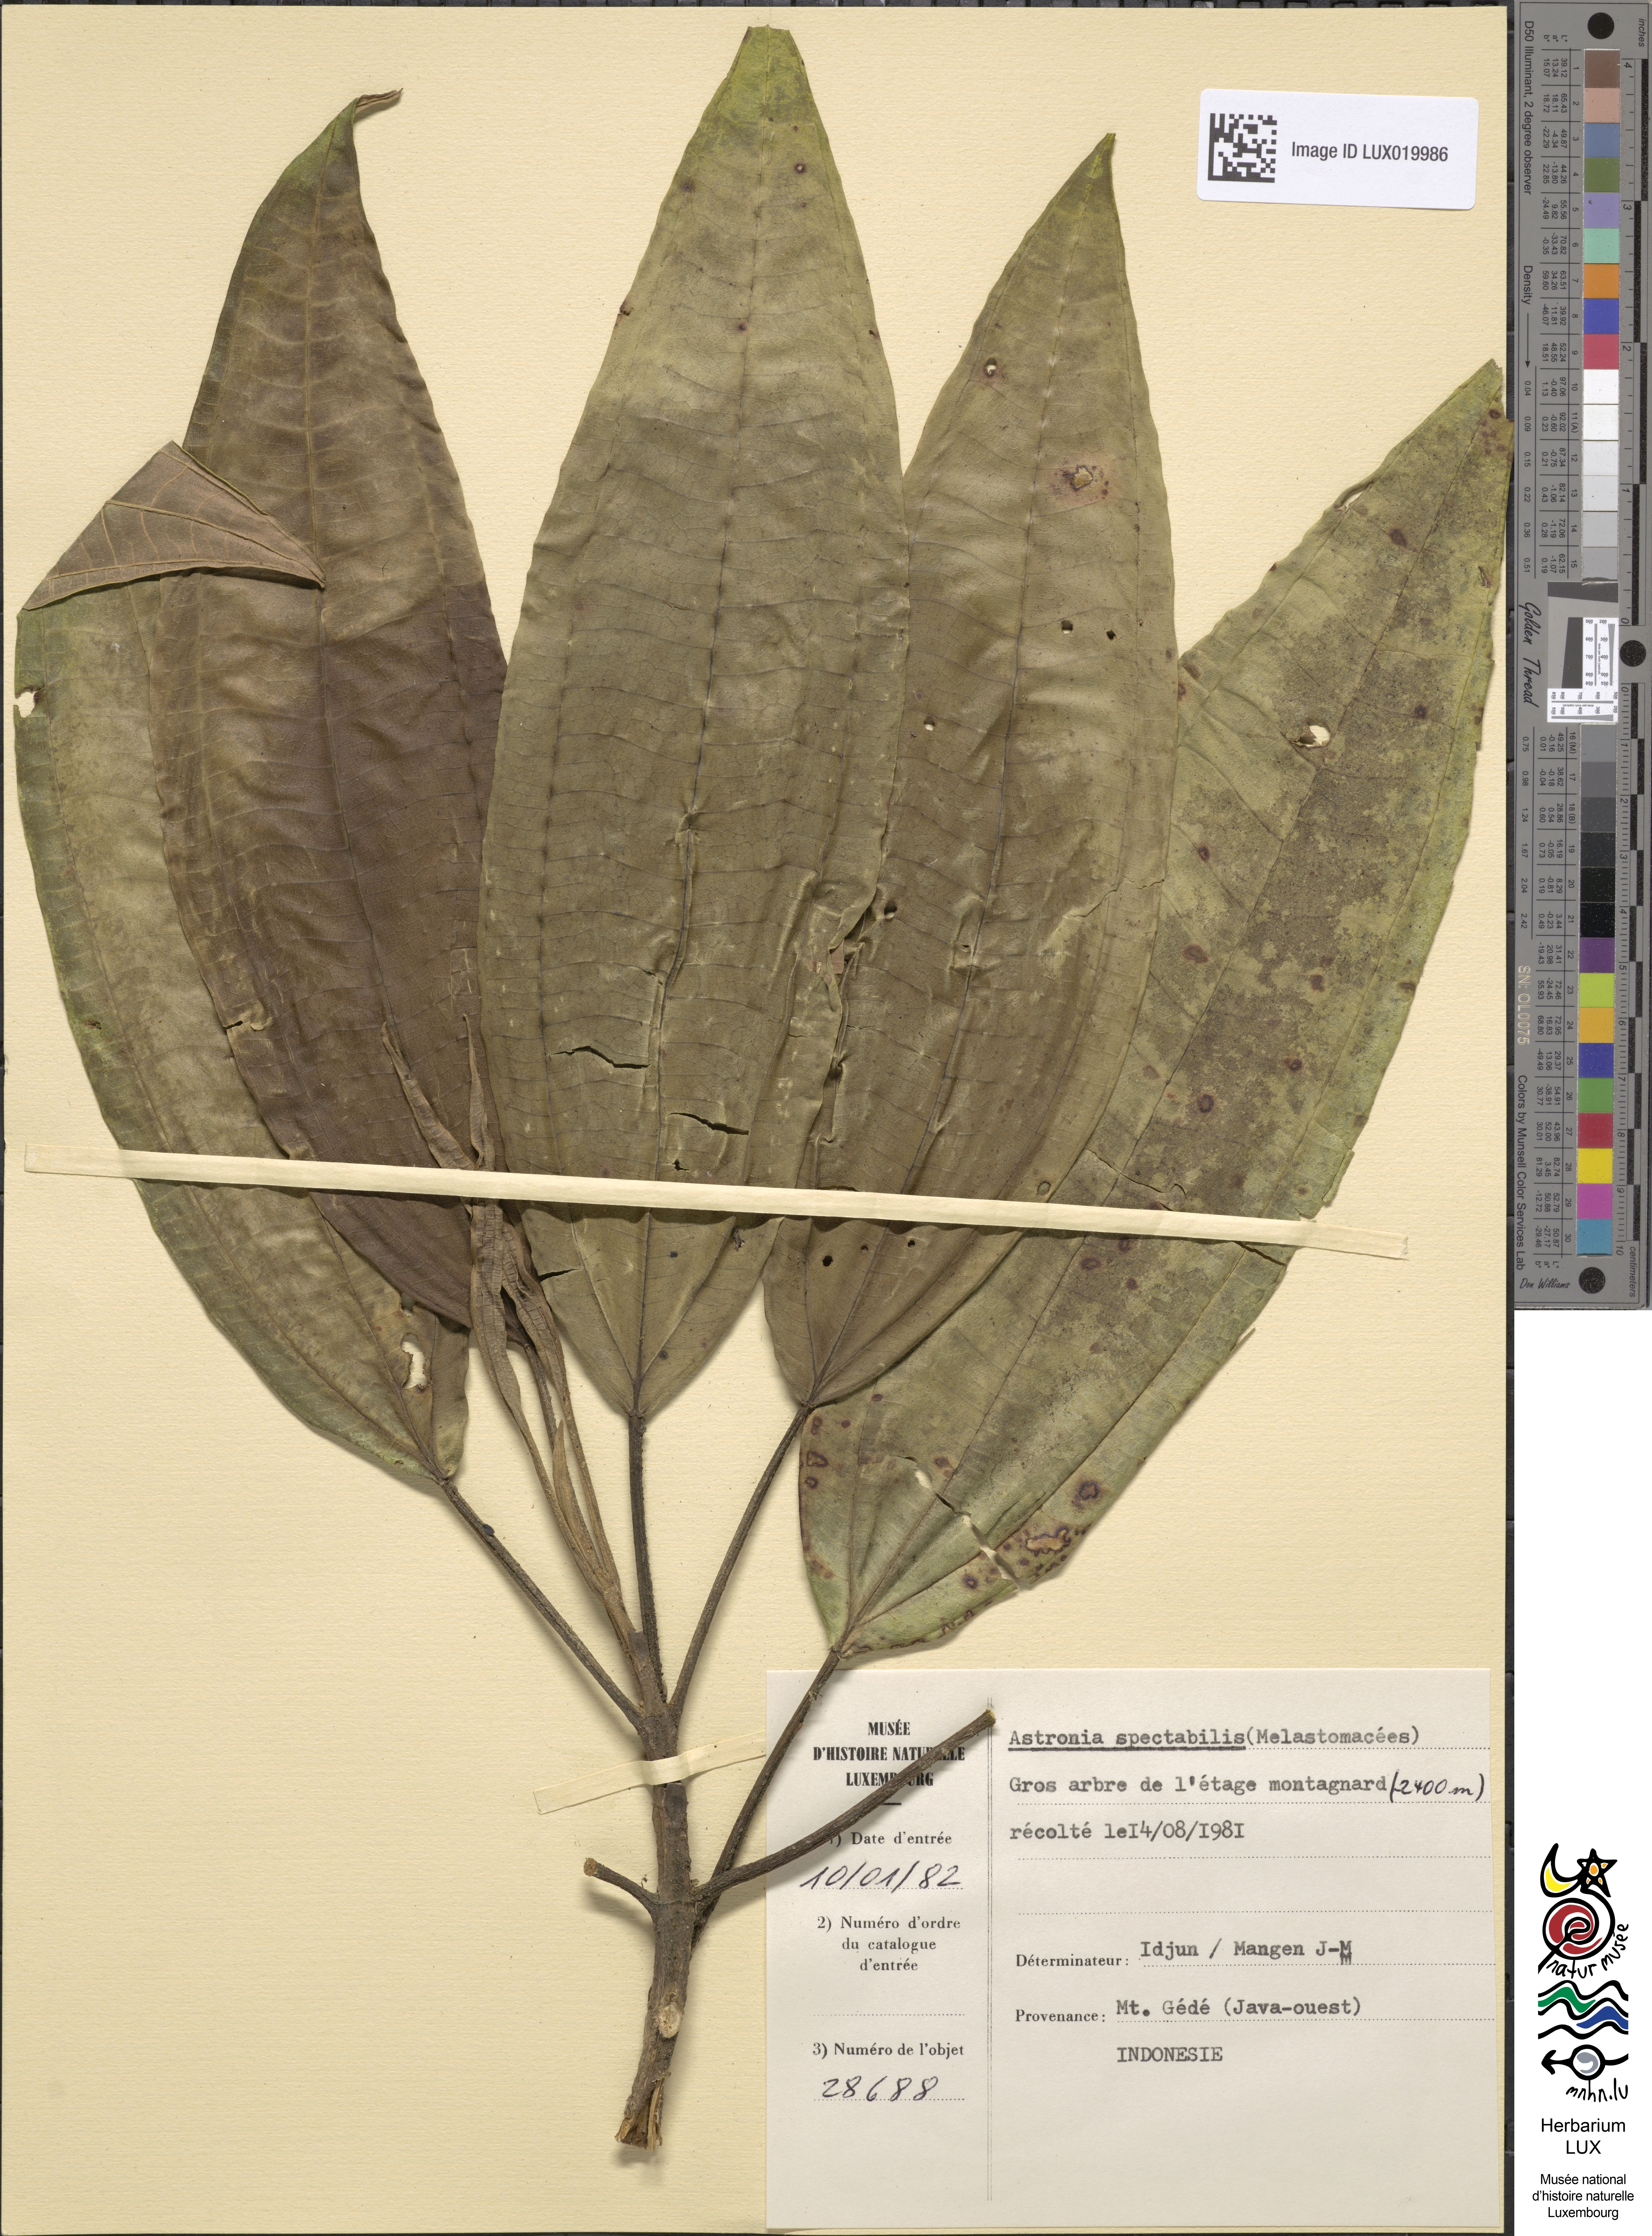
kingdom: Plantae
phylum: Tracheophyta
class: Magnoliopsida
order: Myrtales
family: Melastomataceae
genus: Astronia
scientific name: Astronia spectabilis
